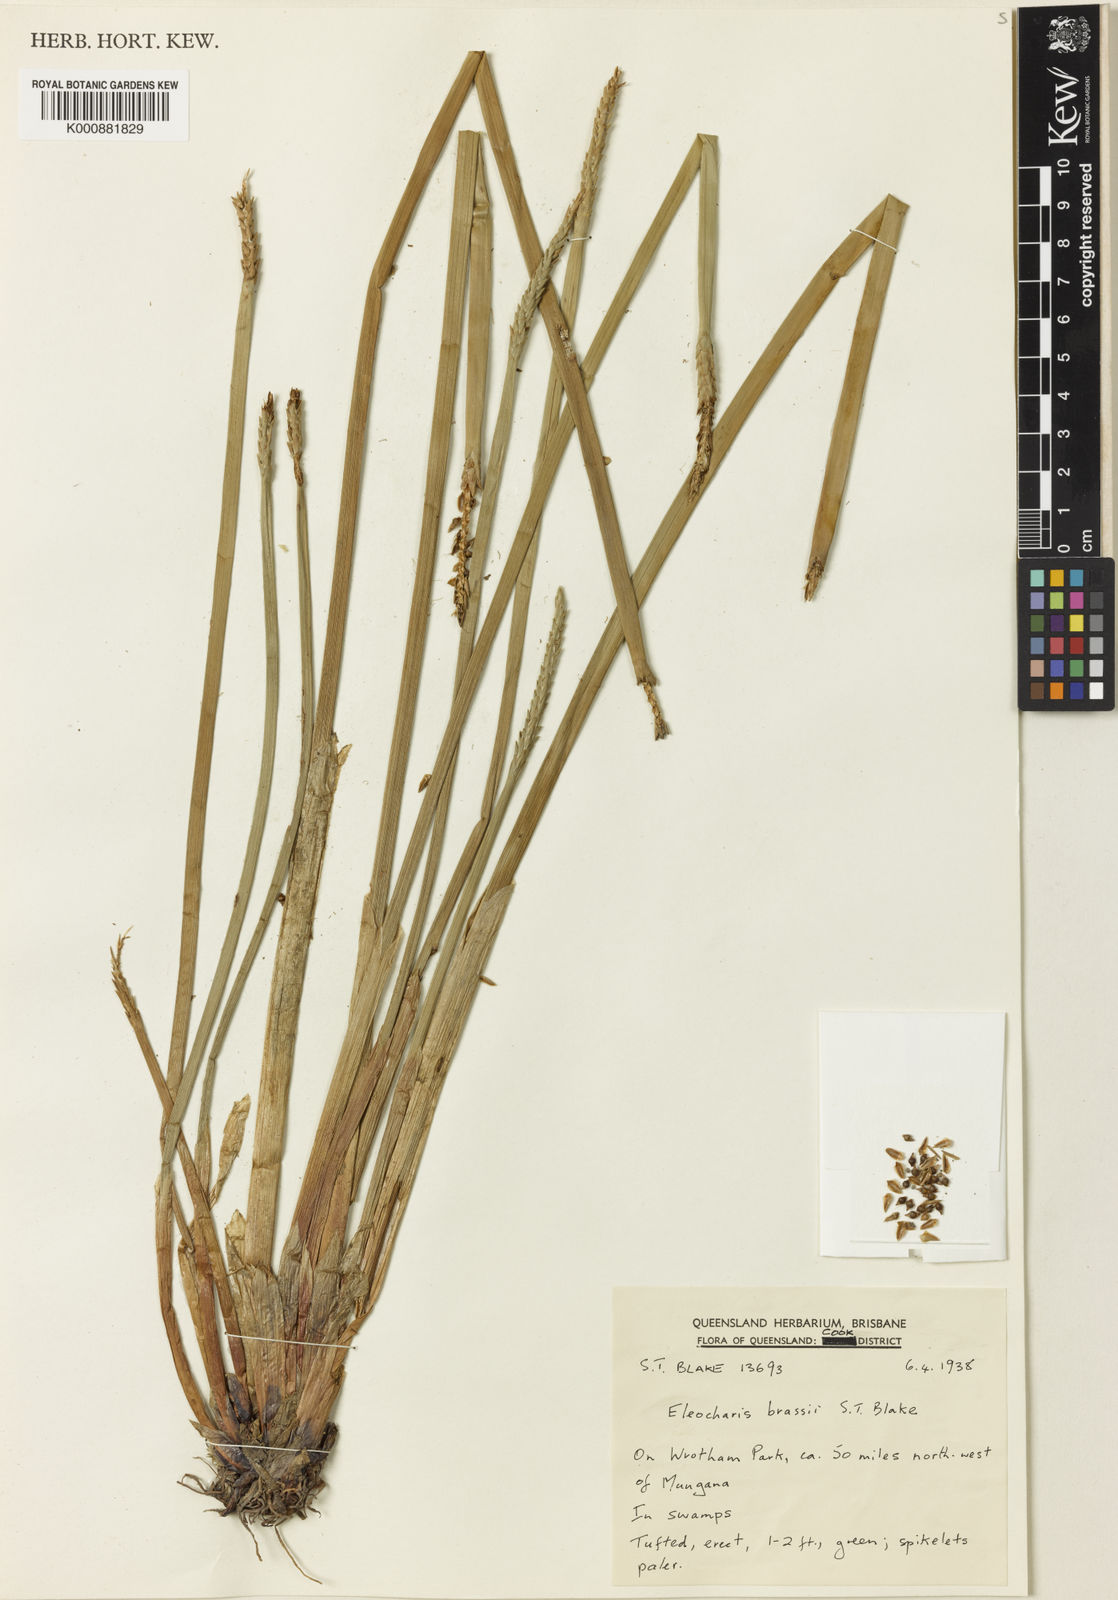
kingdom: Plantae
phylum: Tracheophyta
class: Liliopsida
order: Poales
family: Cyperaceae
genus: Eleocharis
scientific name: Eleocharis brassii
